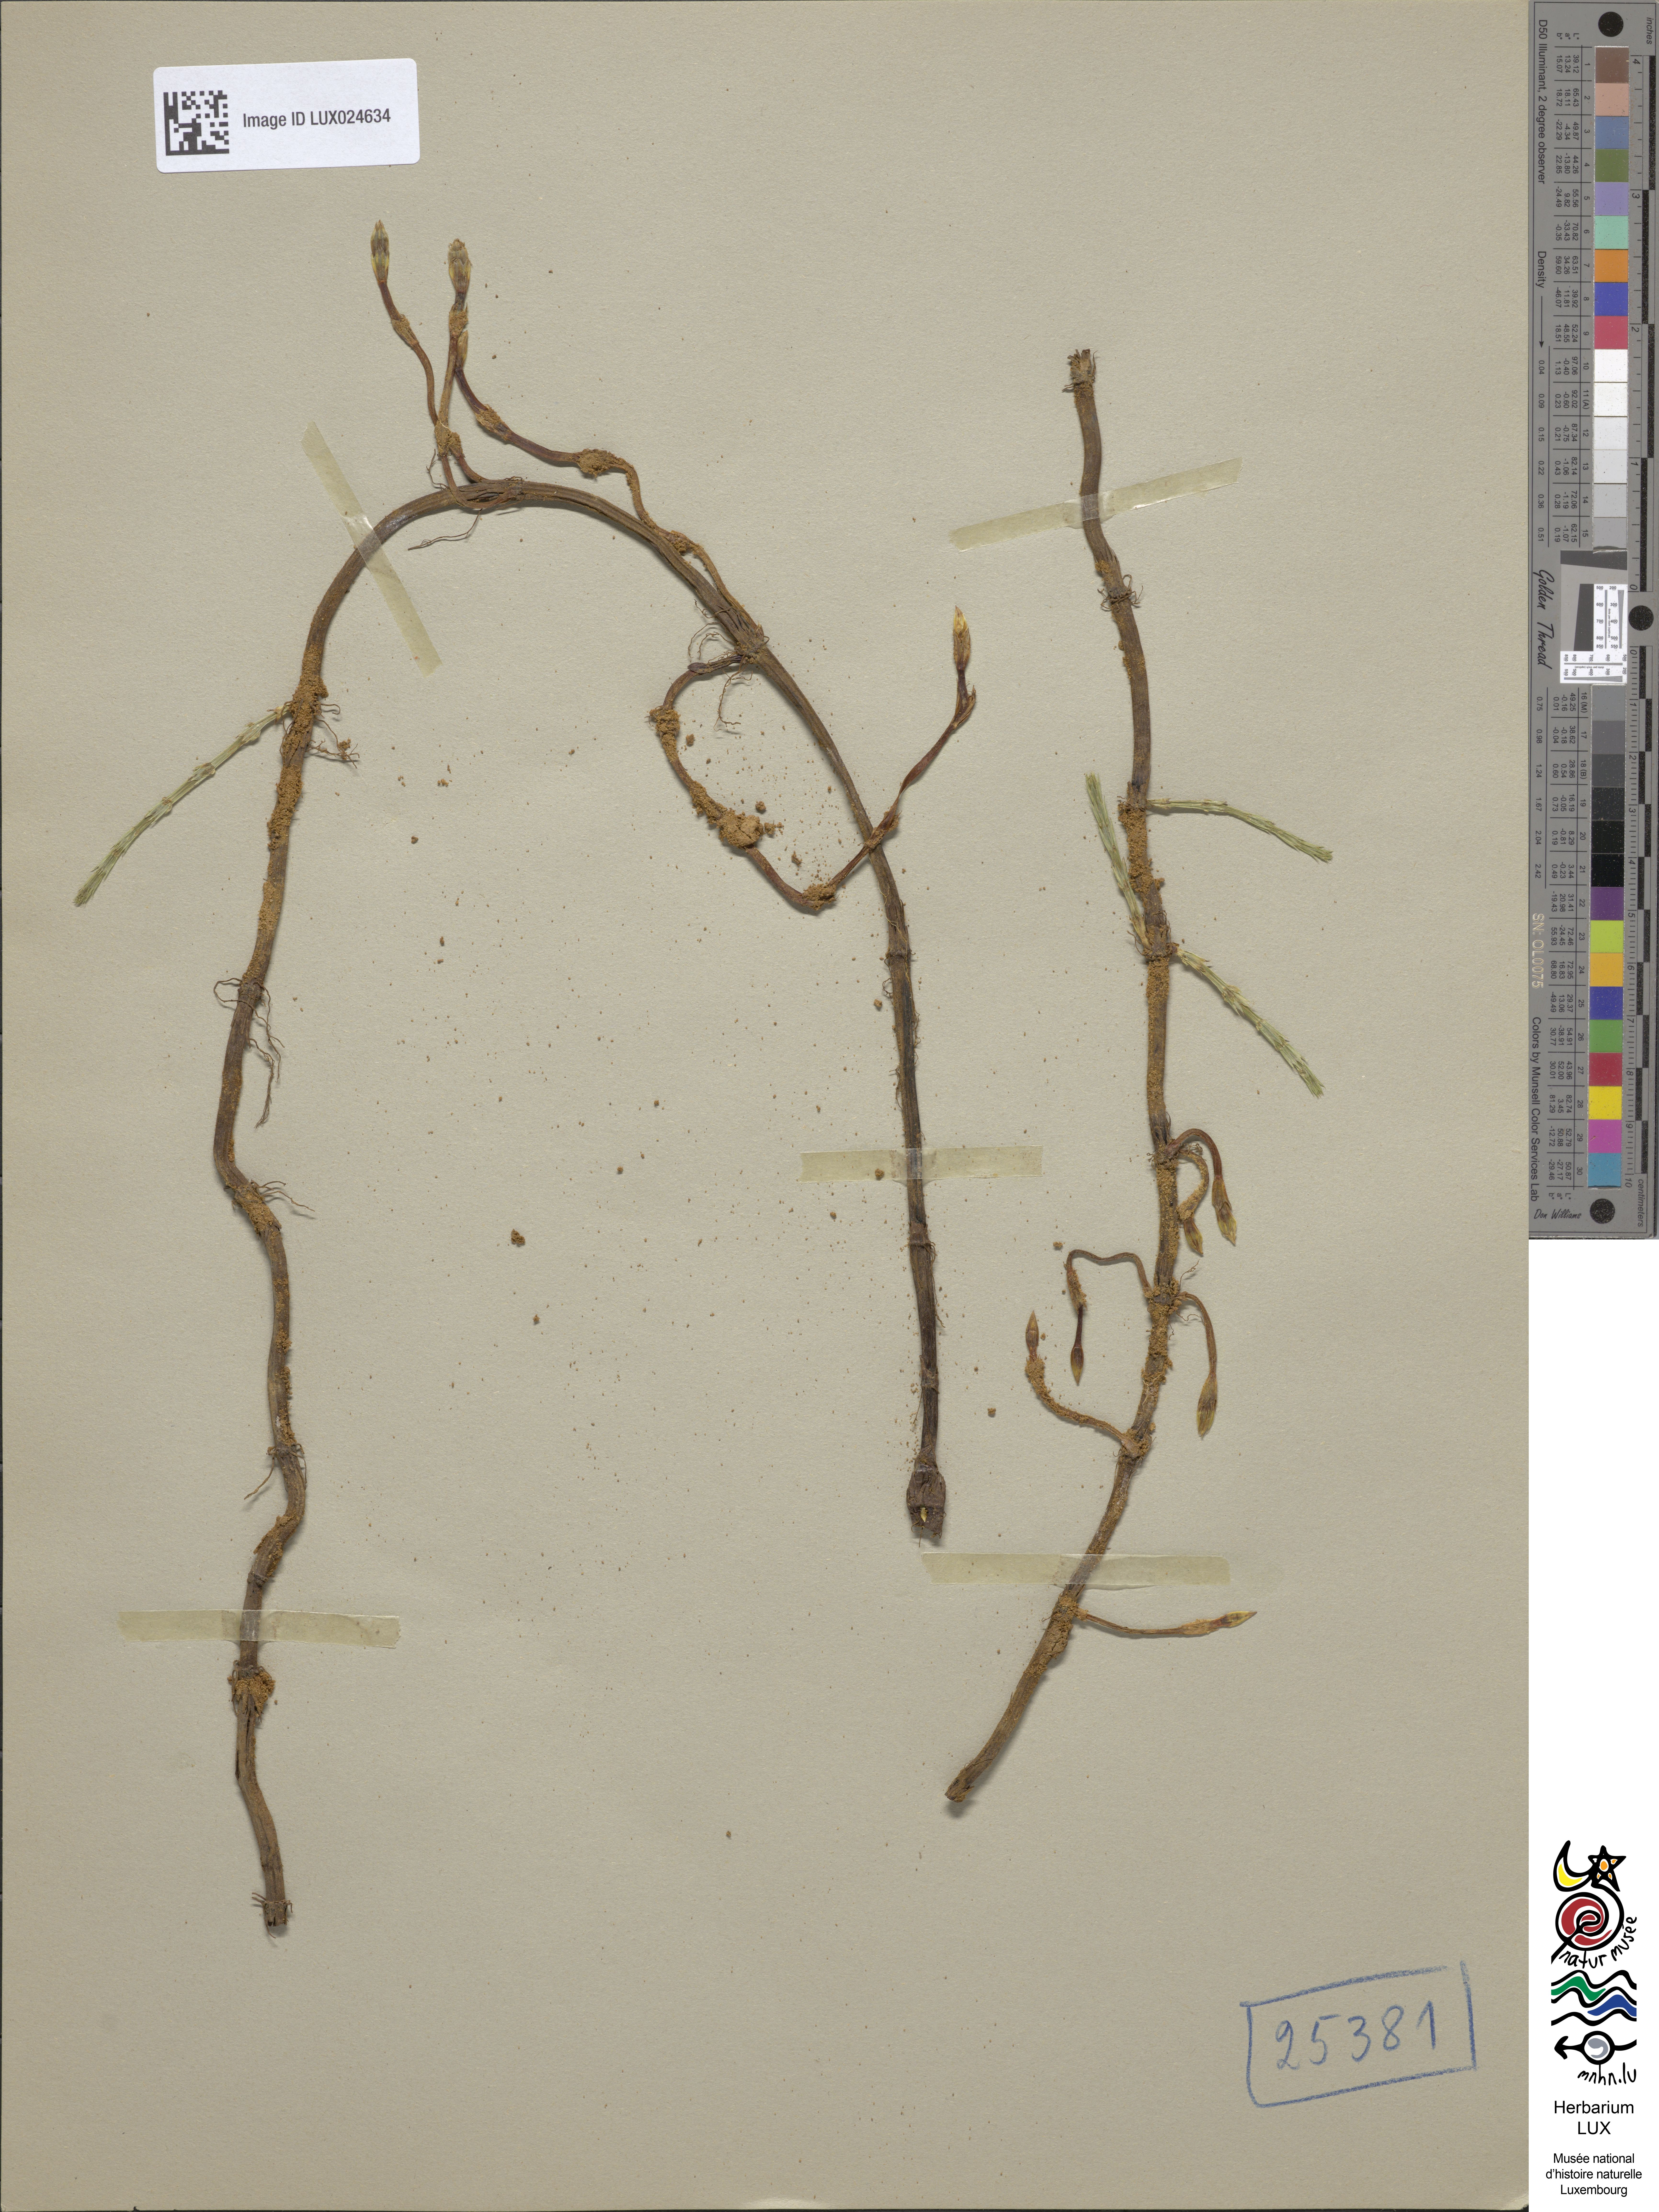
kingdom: Plantae
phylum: Tracheophyta
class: Polypodiopsida
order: Equisetales
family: Equisetaceae
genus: Equisetum
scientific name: Equisetum arvense
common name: Field horsetail
